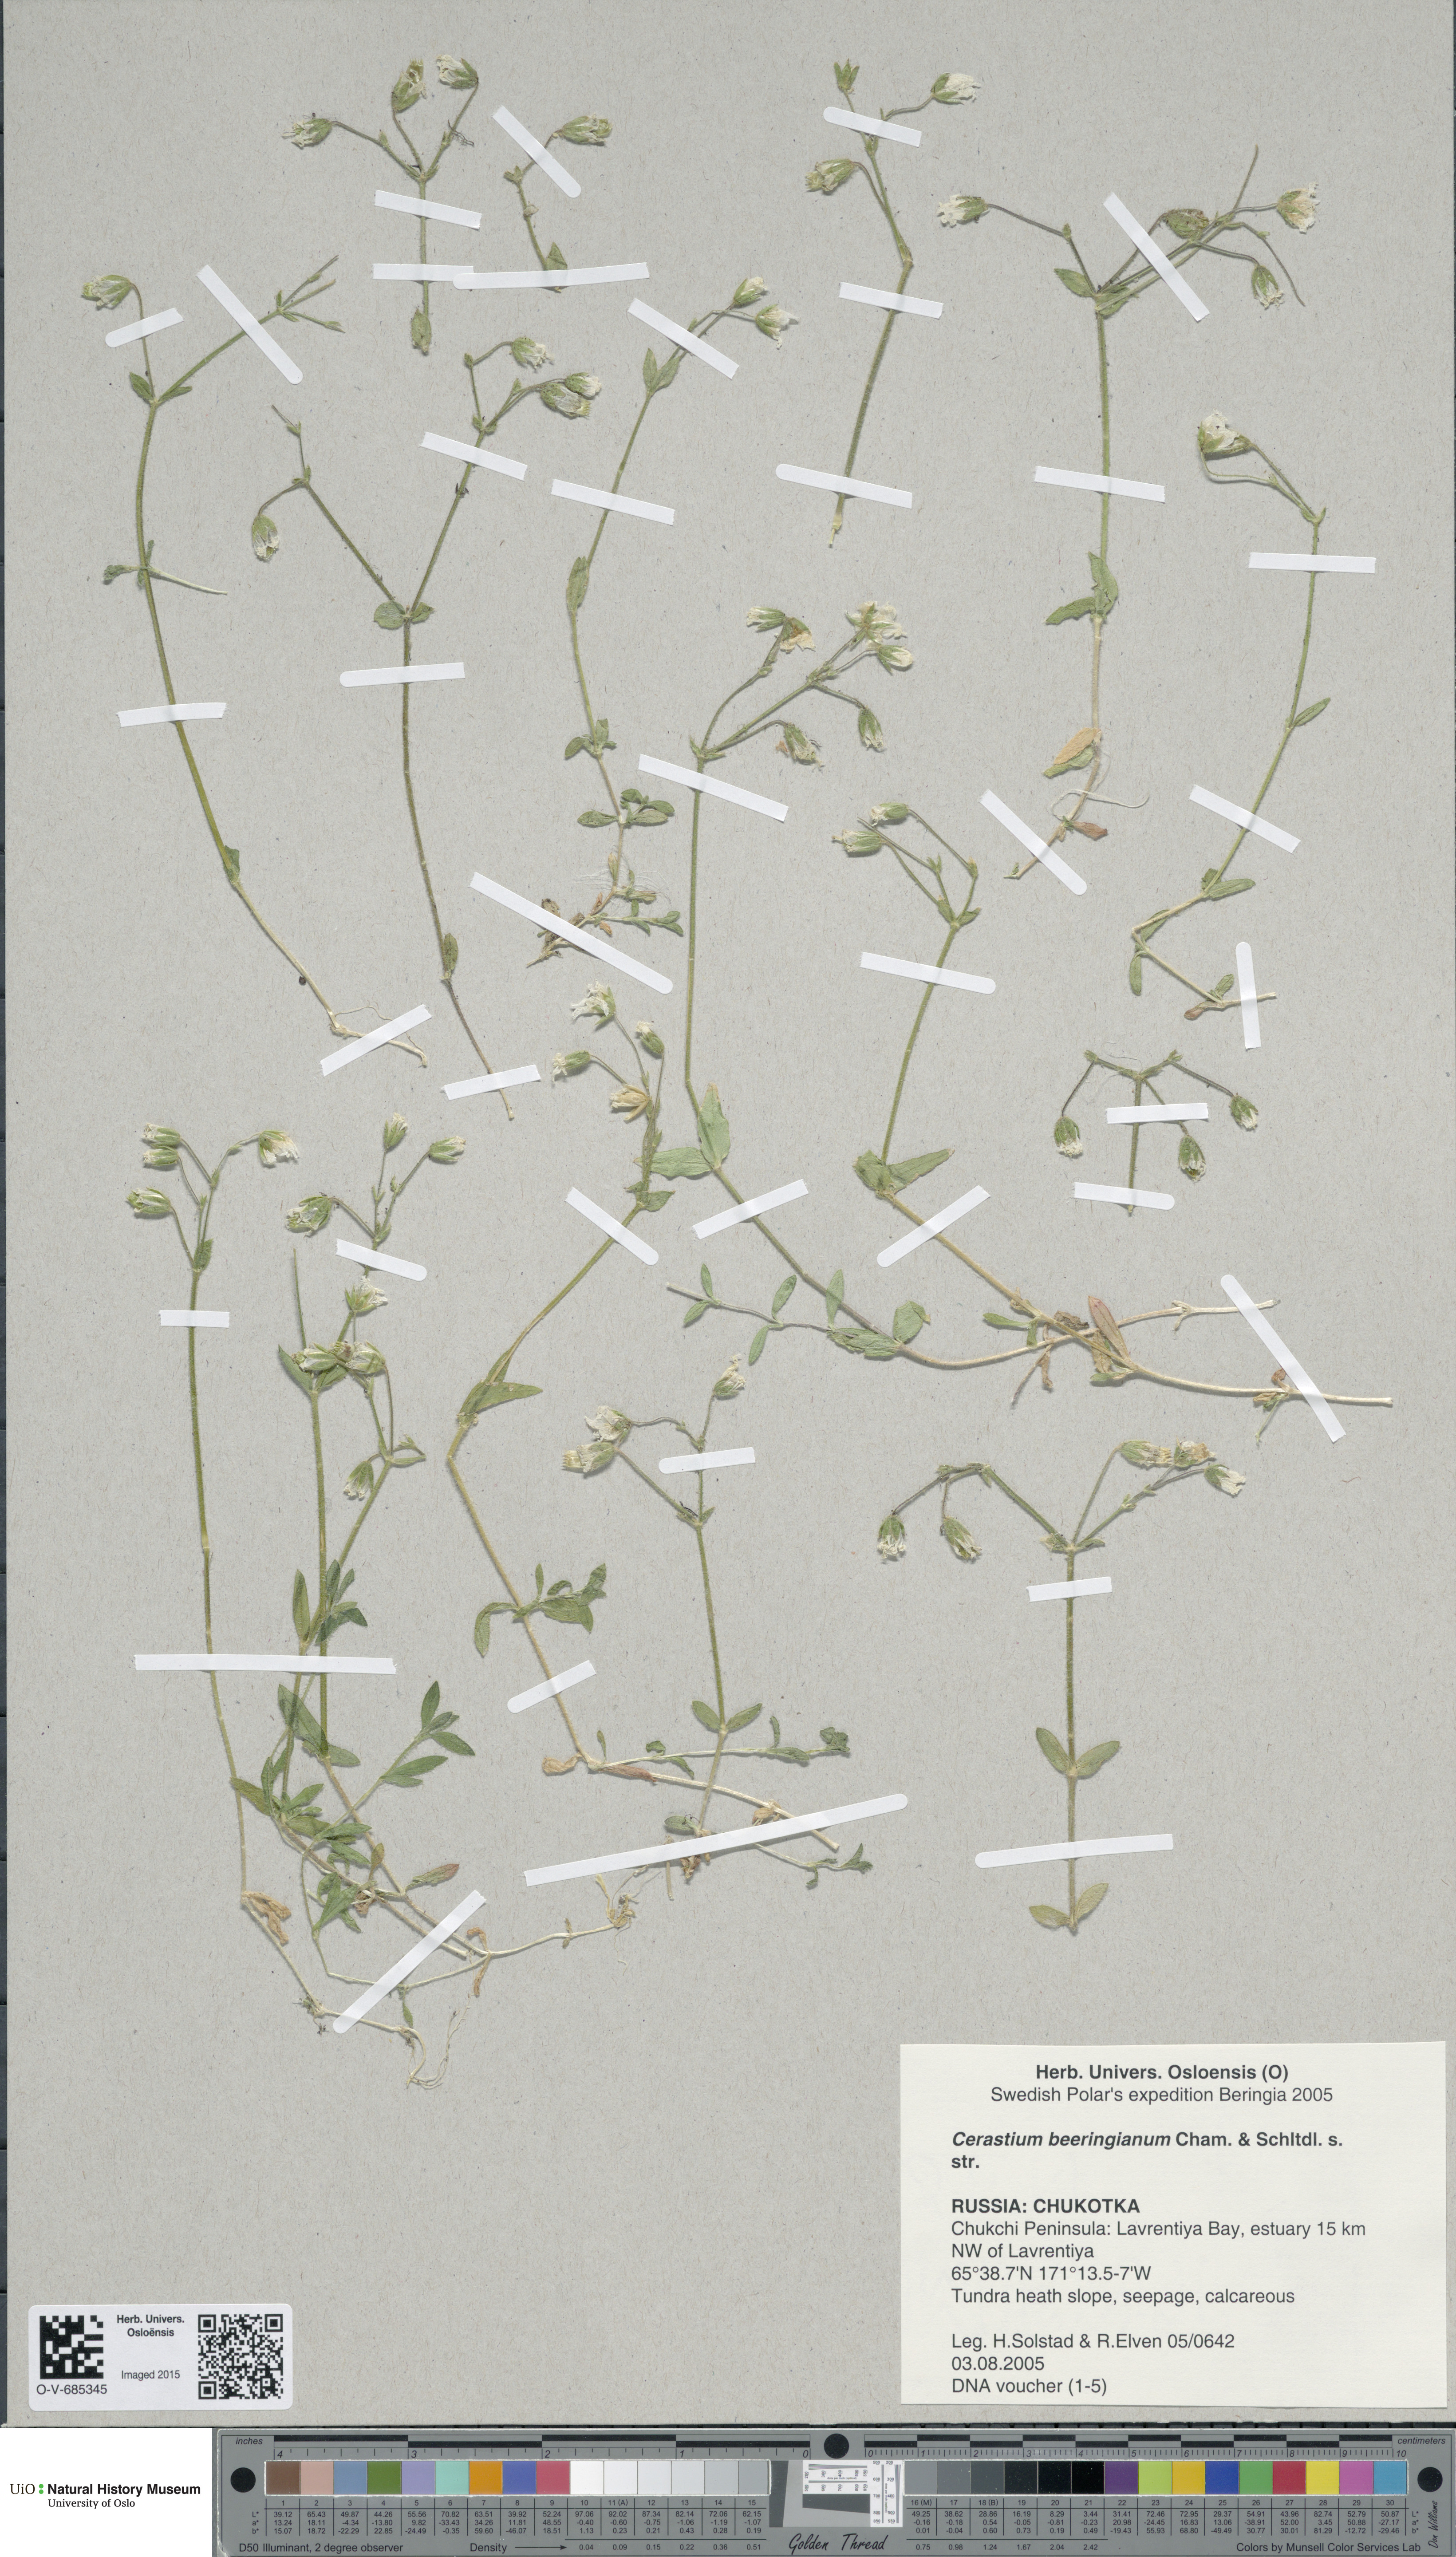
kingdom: Plantae
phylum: Tracheophyta
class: Magnoliopsida
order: Caryophyllales
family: Caryophyllaceae
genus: Cerastium
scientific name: Cerastium beeringianum
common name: Bering mouse-ear chickweed
